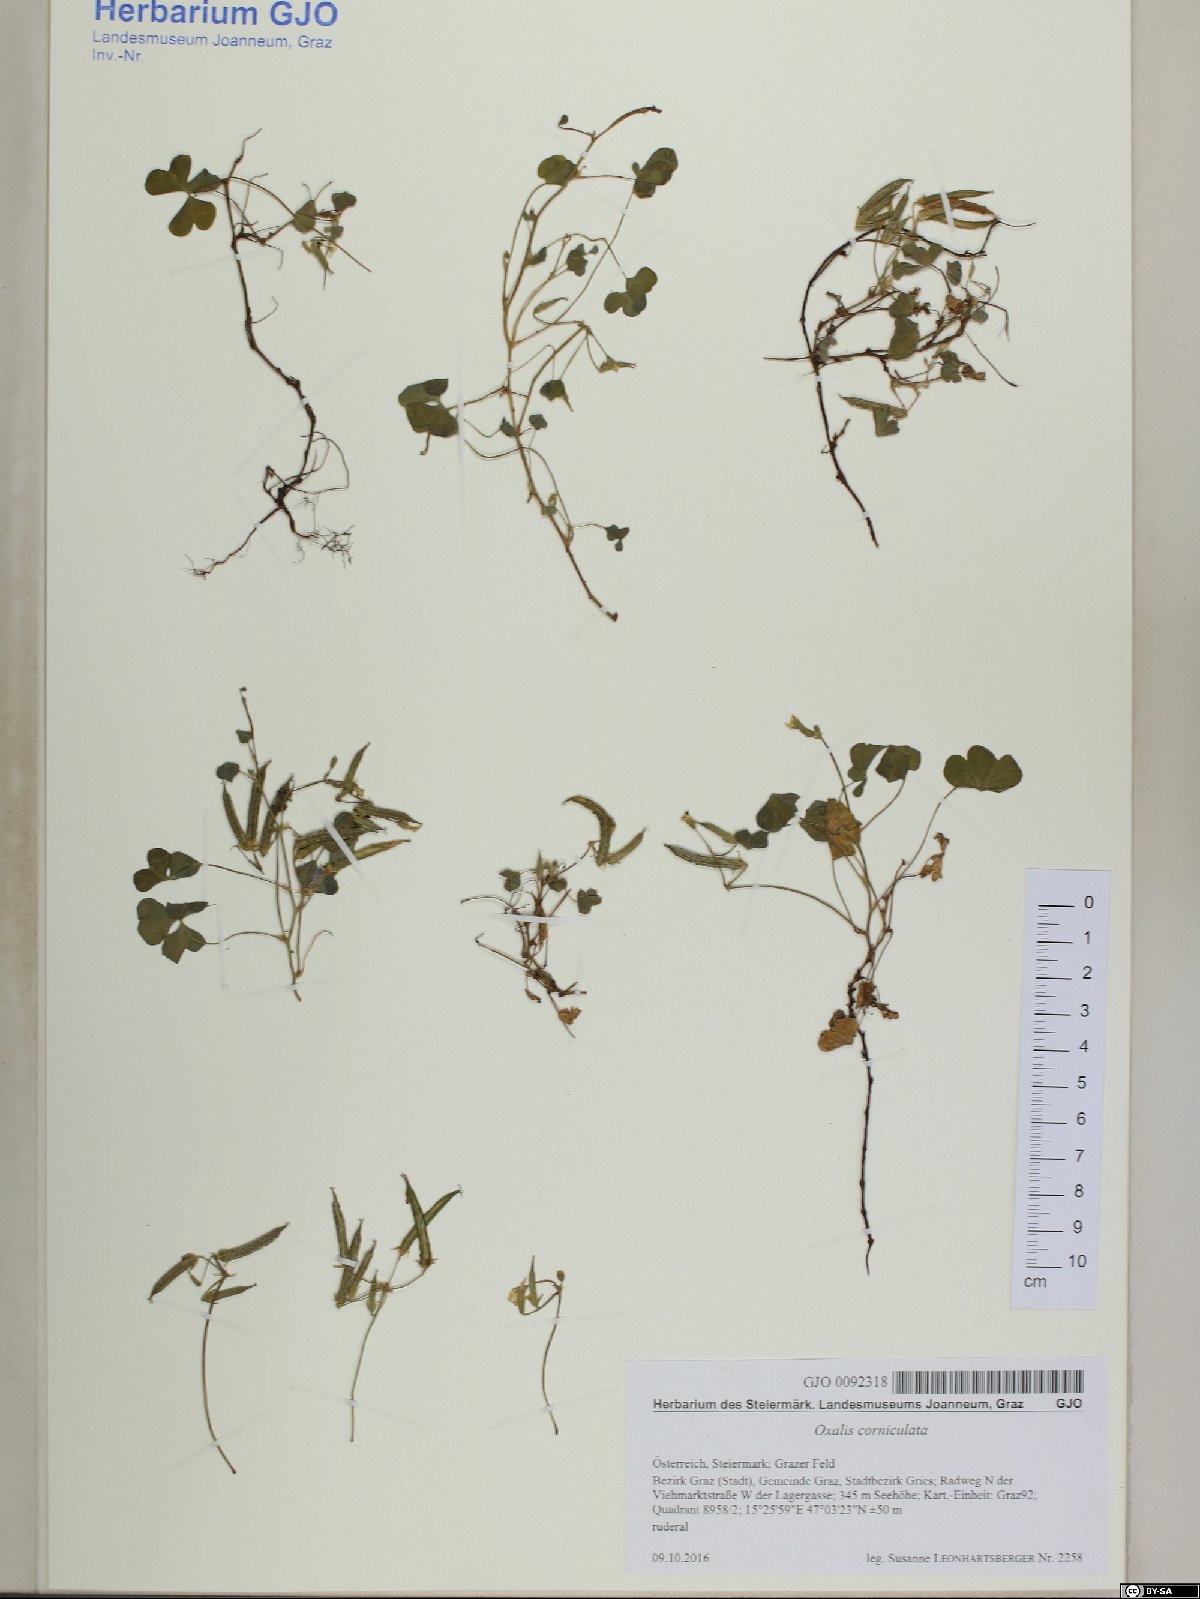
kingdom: Plantae
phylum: Tracheophyta
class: Magnoliopsida
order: Oxalidales
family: Oxalidaceae
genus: Oxalis
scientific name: Oxalis corniculata
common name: Procumbent yellow-sorrel
